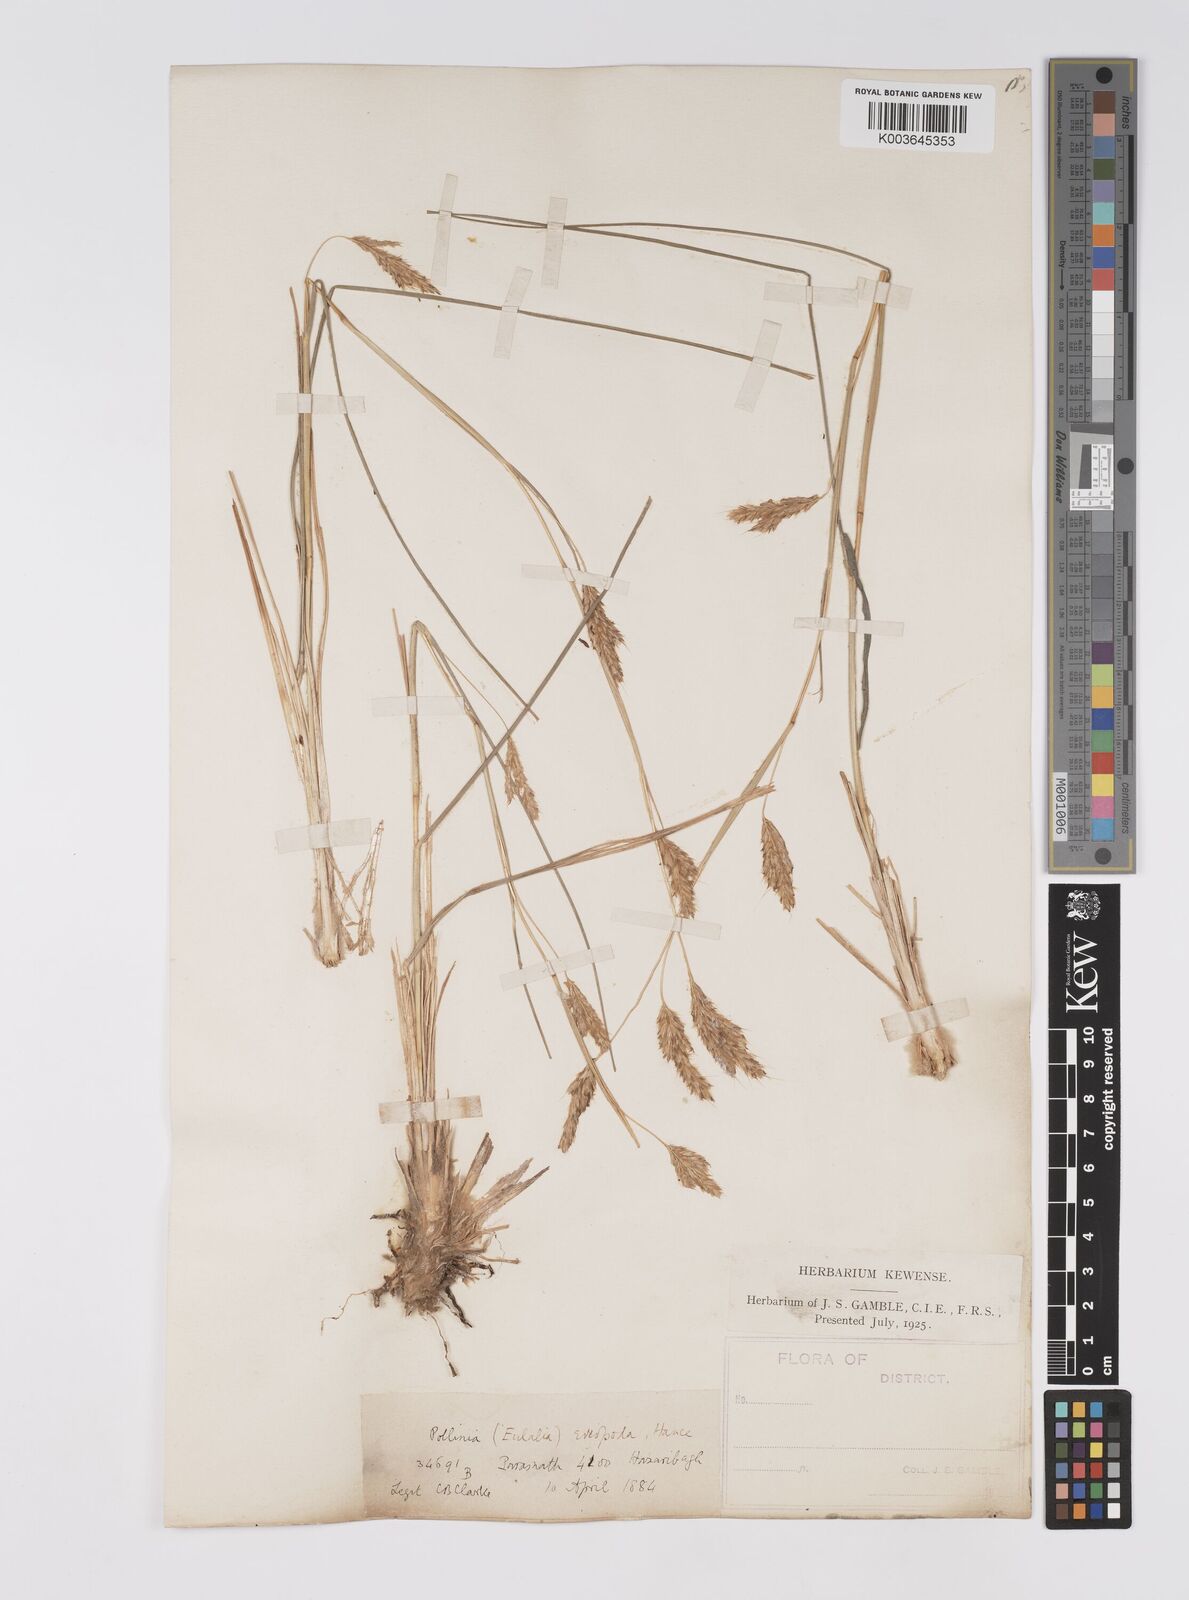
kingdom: Plantae
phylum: Tracheophyta
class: Liliopsida
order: Poales
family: Poaceae
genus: Eulaliopsis
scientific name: Eulaliopsis binata
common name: Baib grass
